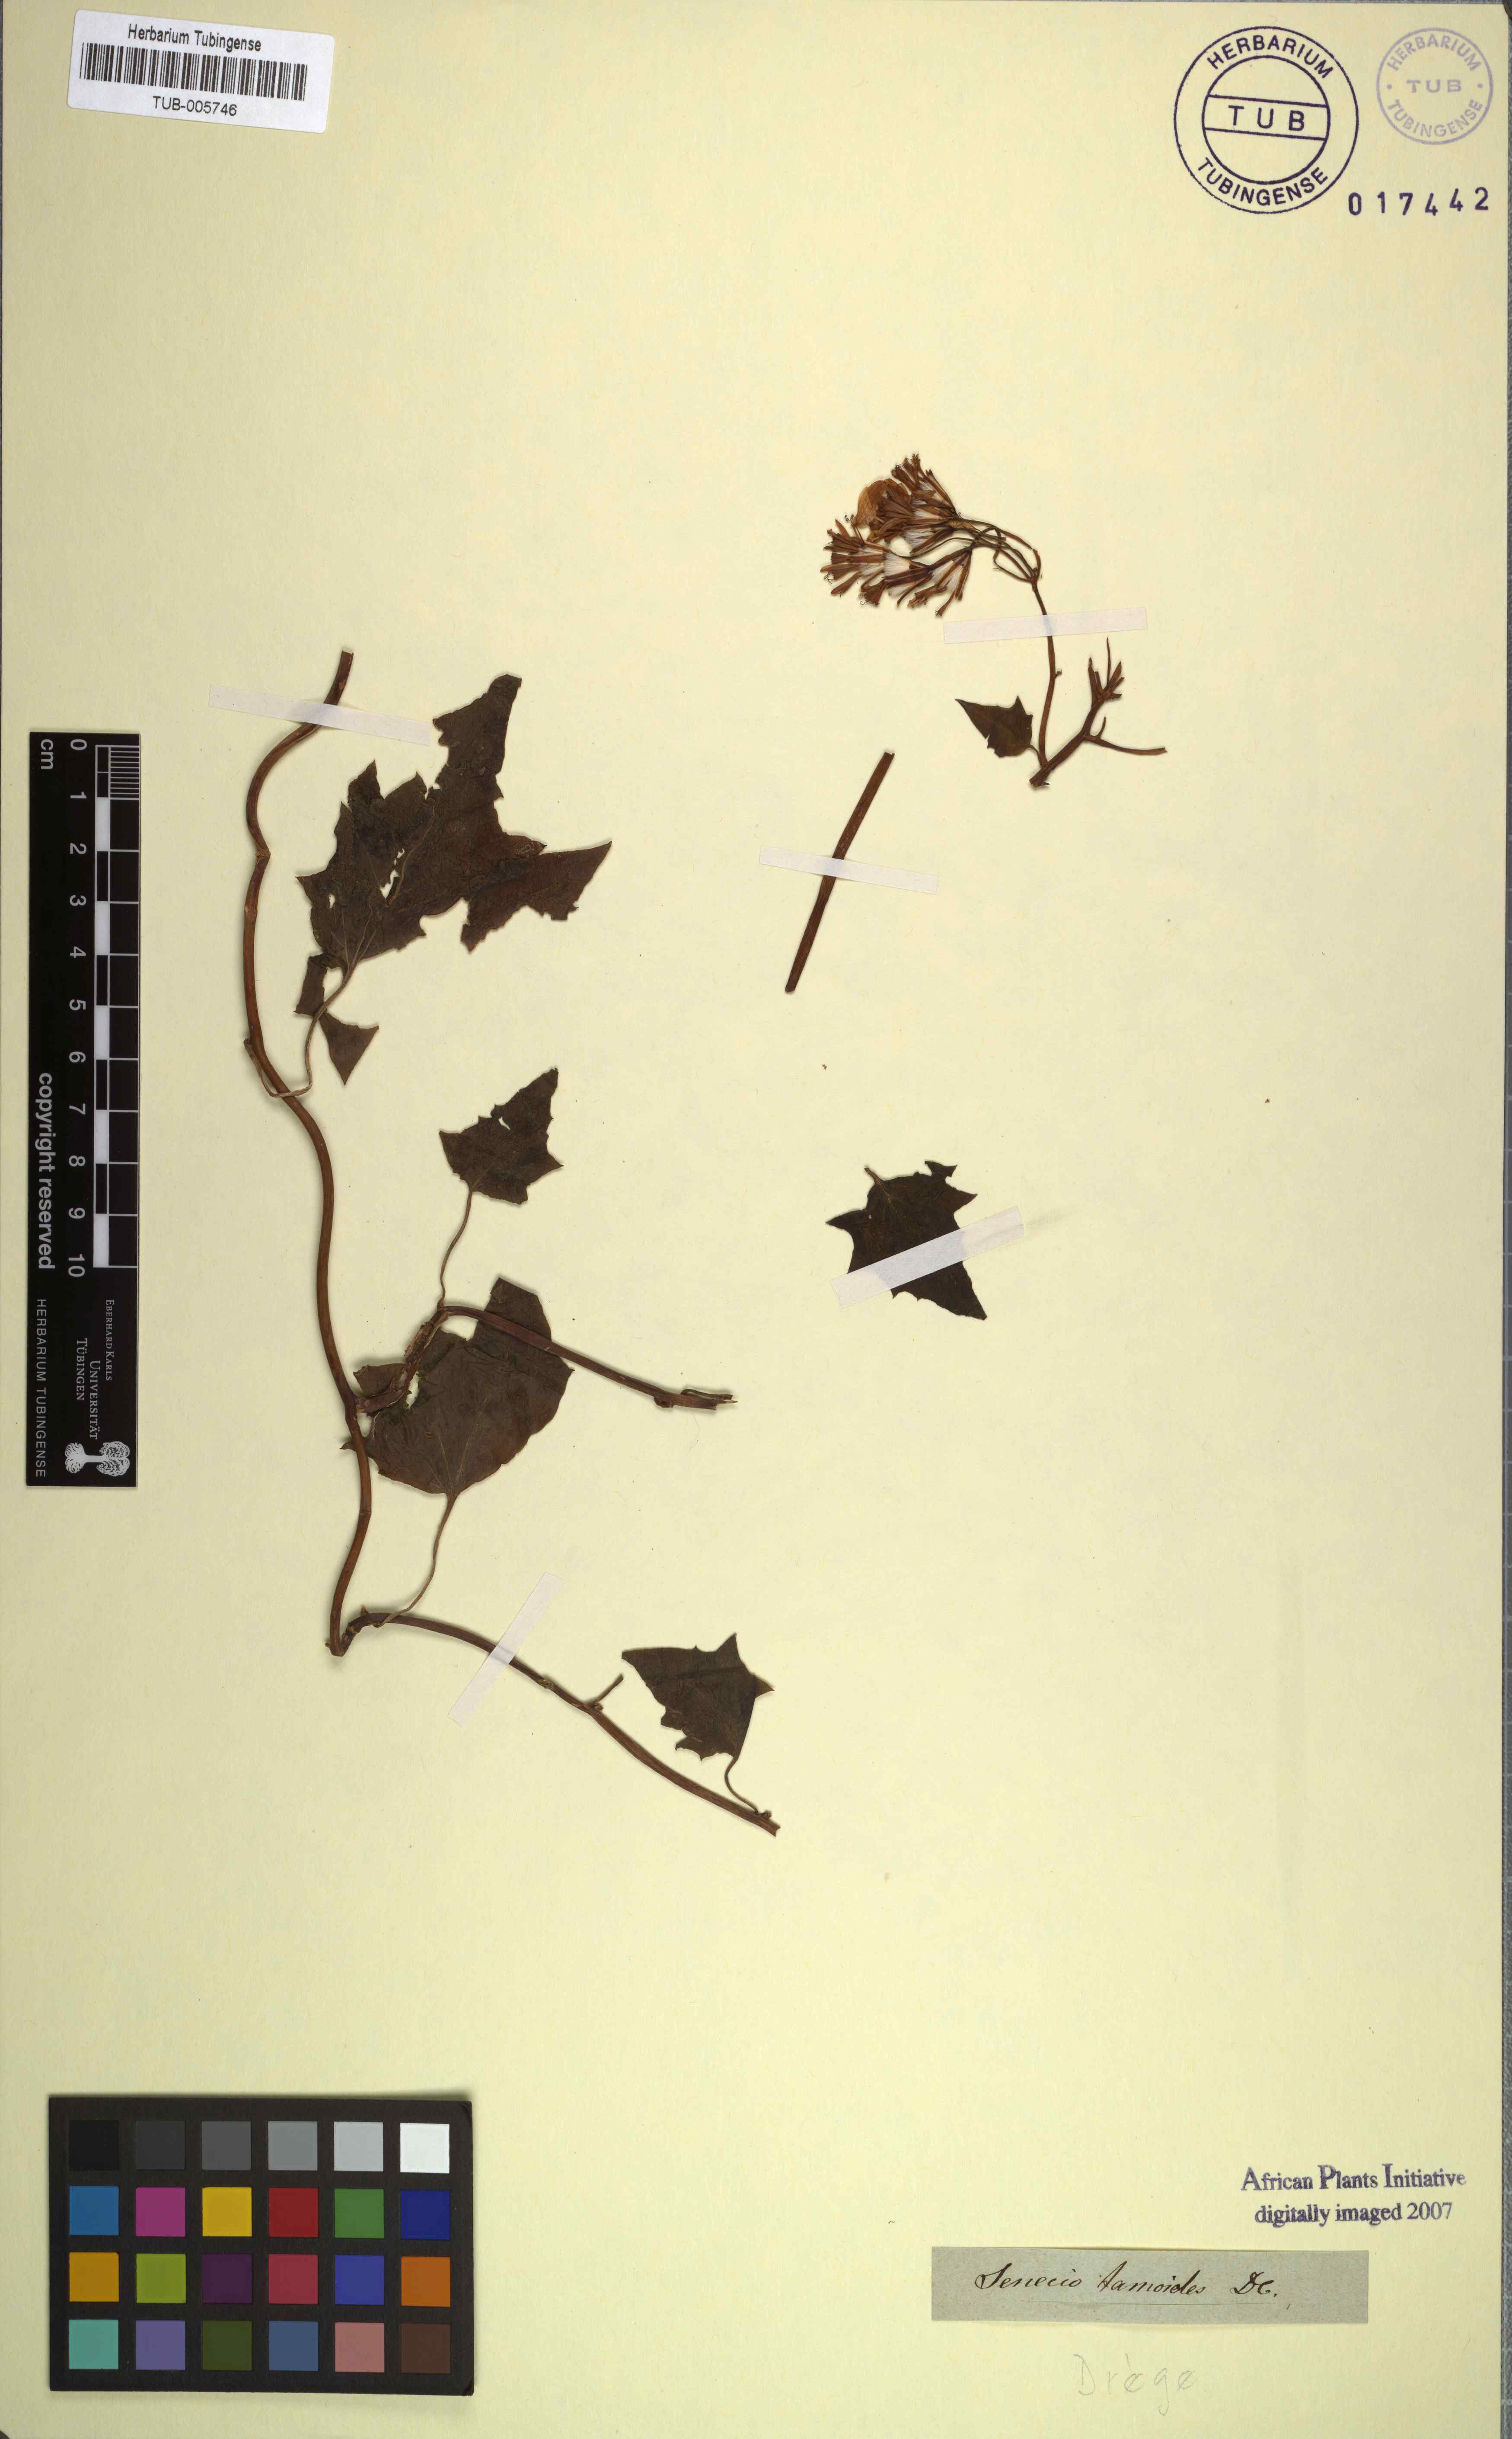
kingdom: Plantae
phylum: Tracheophyta
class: Magnoliopsida
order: Asterales
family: Asteraceae
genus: Senecio
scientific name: Senecio tamoides
